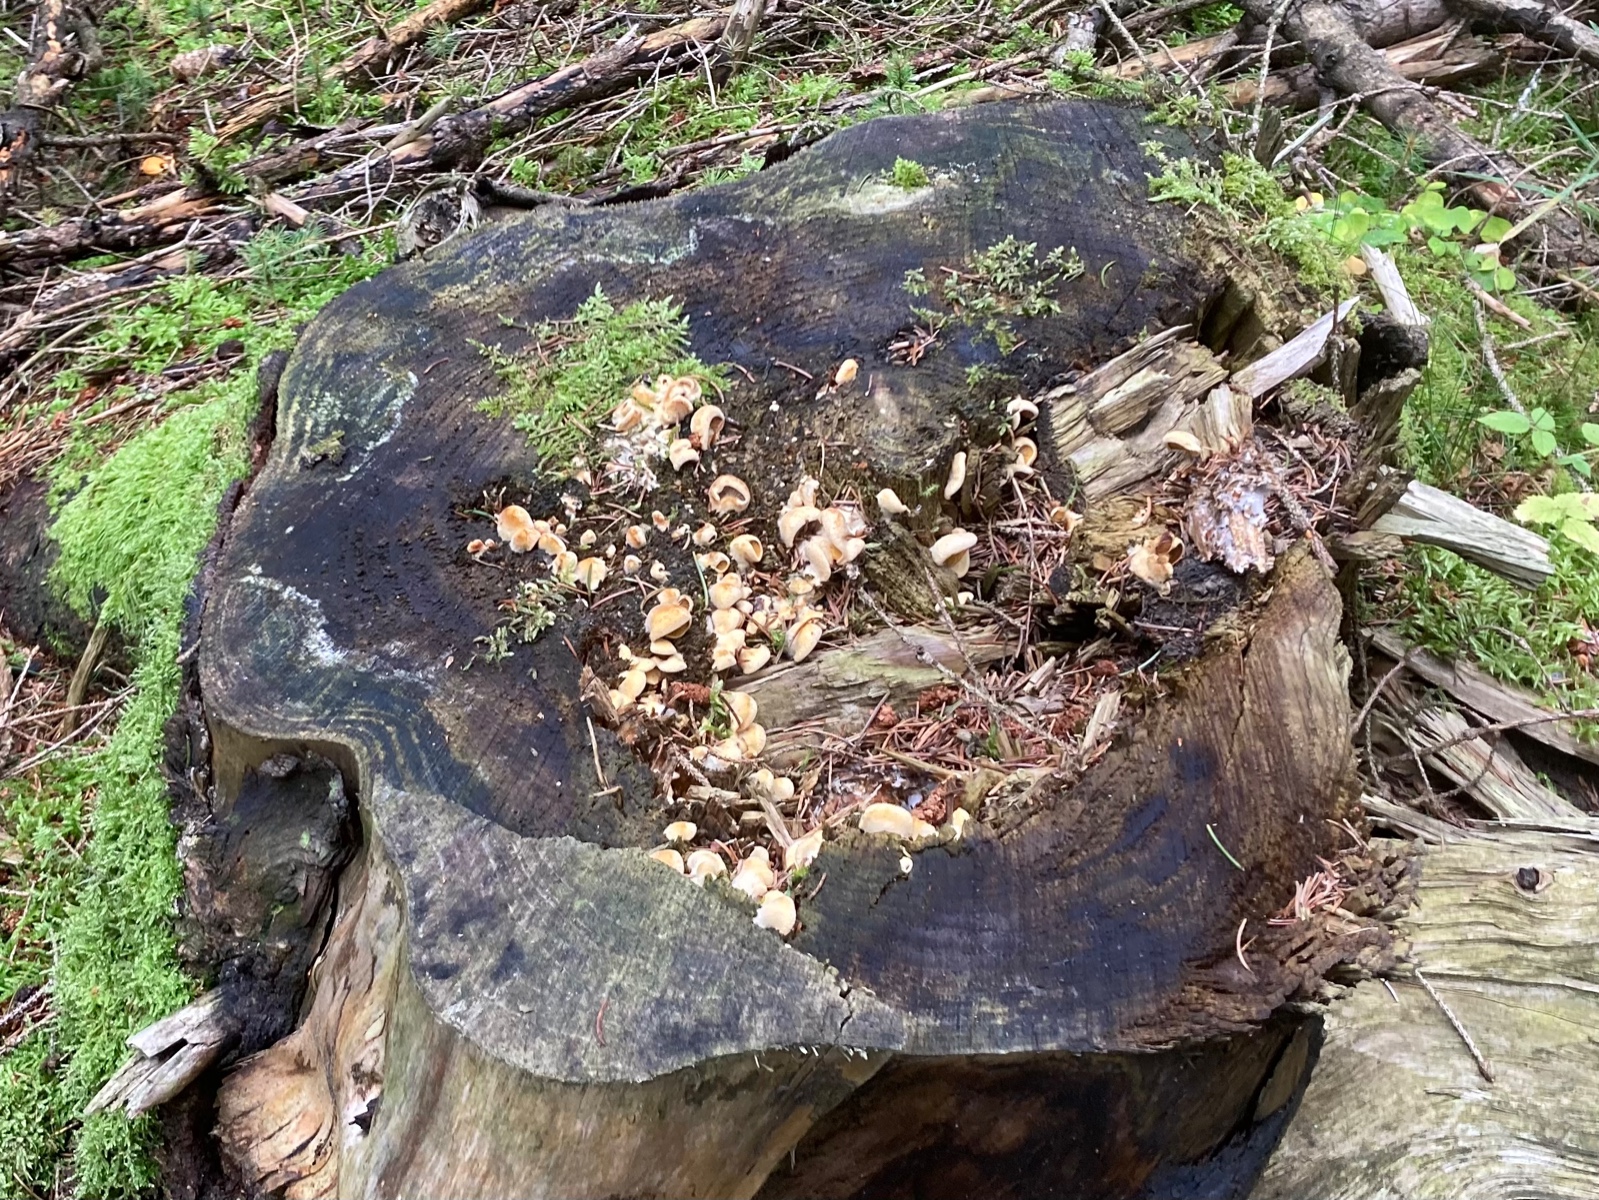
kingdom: Fungi
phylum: Basidiomycota
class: Agaricomycetes
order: Agaricales
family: Phyllotopsidaceae
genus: Phyllotopsis
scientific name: Phyllotopsis nidulans
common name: okkerblad
